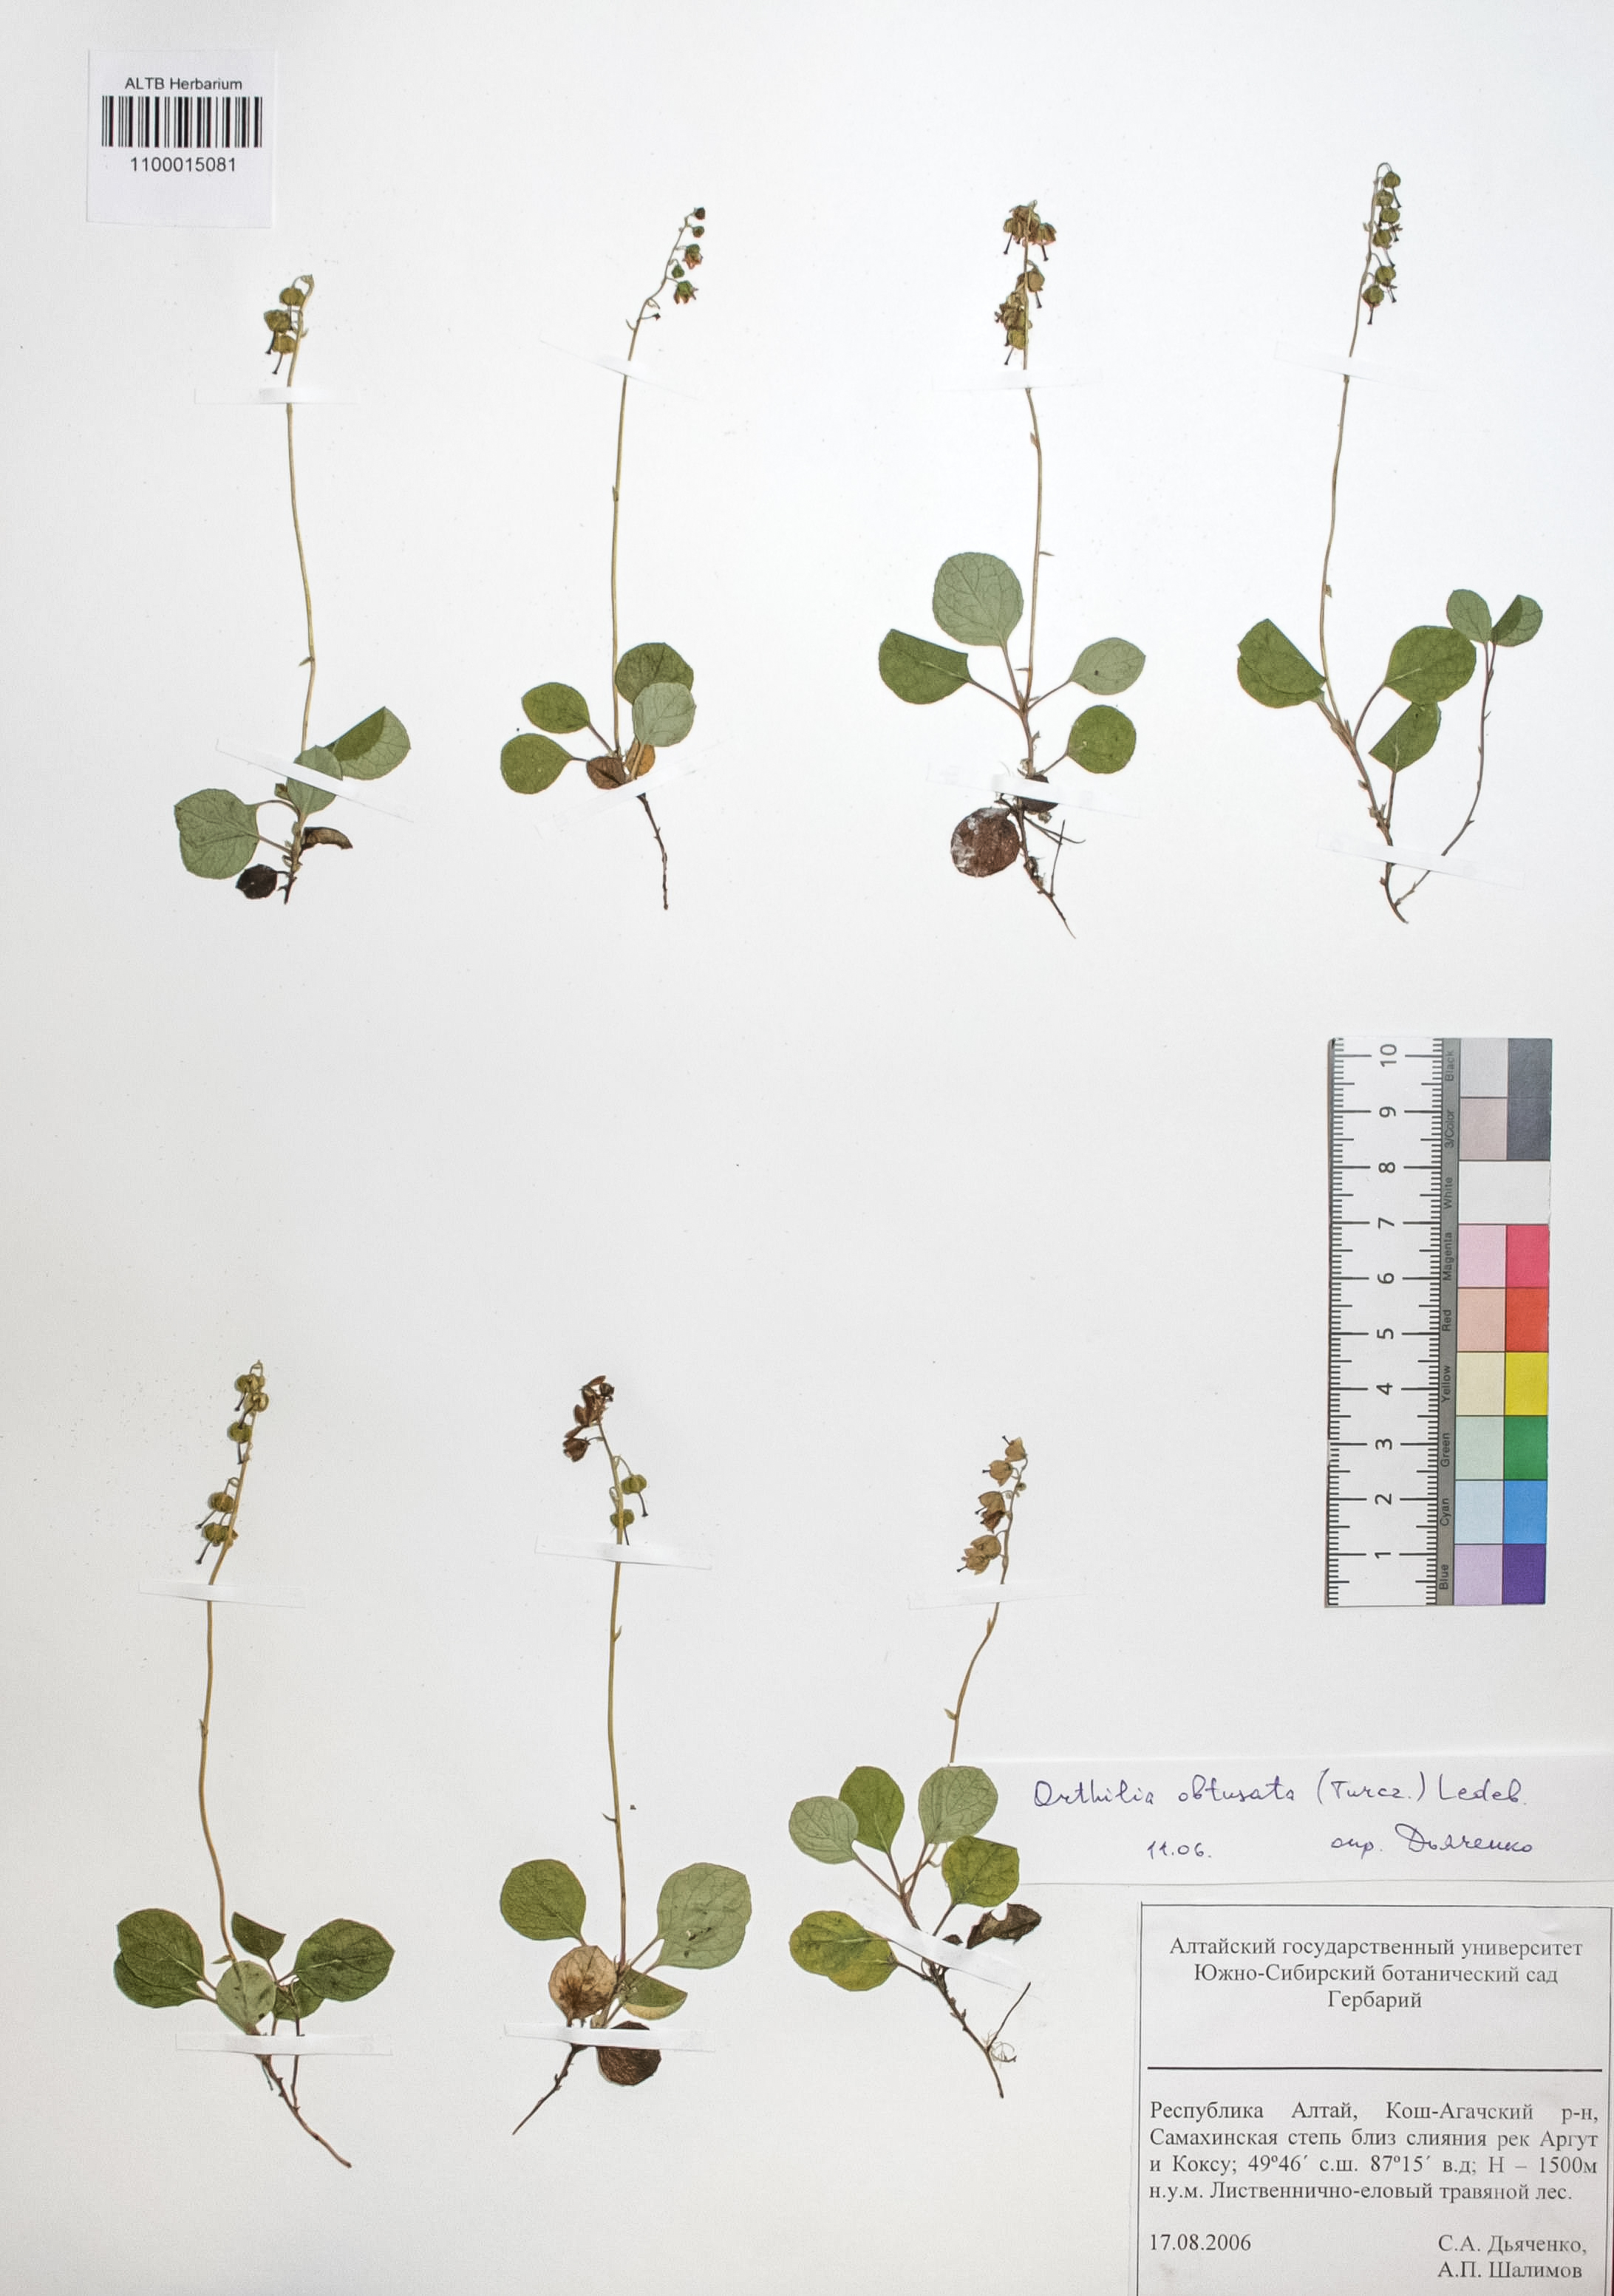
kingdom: Plantae
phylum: Tracheophyta
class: Magnoliopsida
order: Ericales
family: Ericaceae
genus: Orthilia
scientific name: Orthilia secunda
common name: One-sided orthilia
